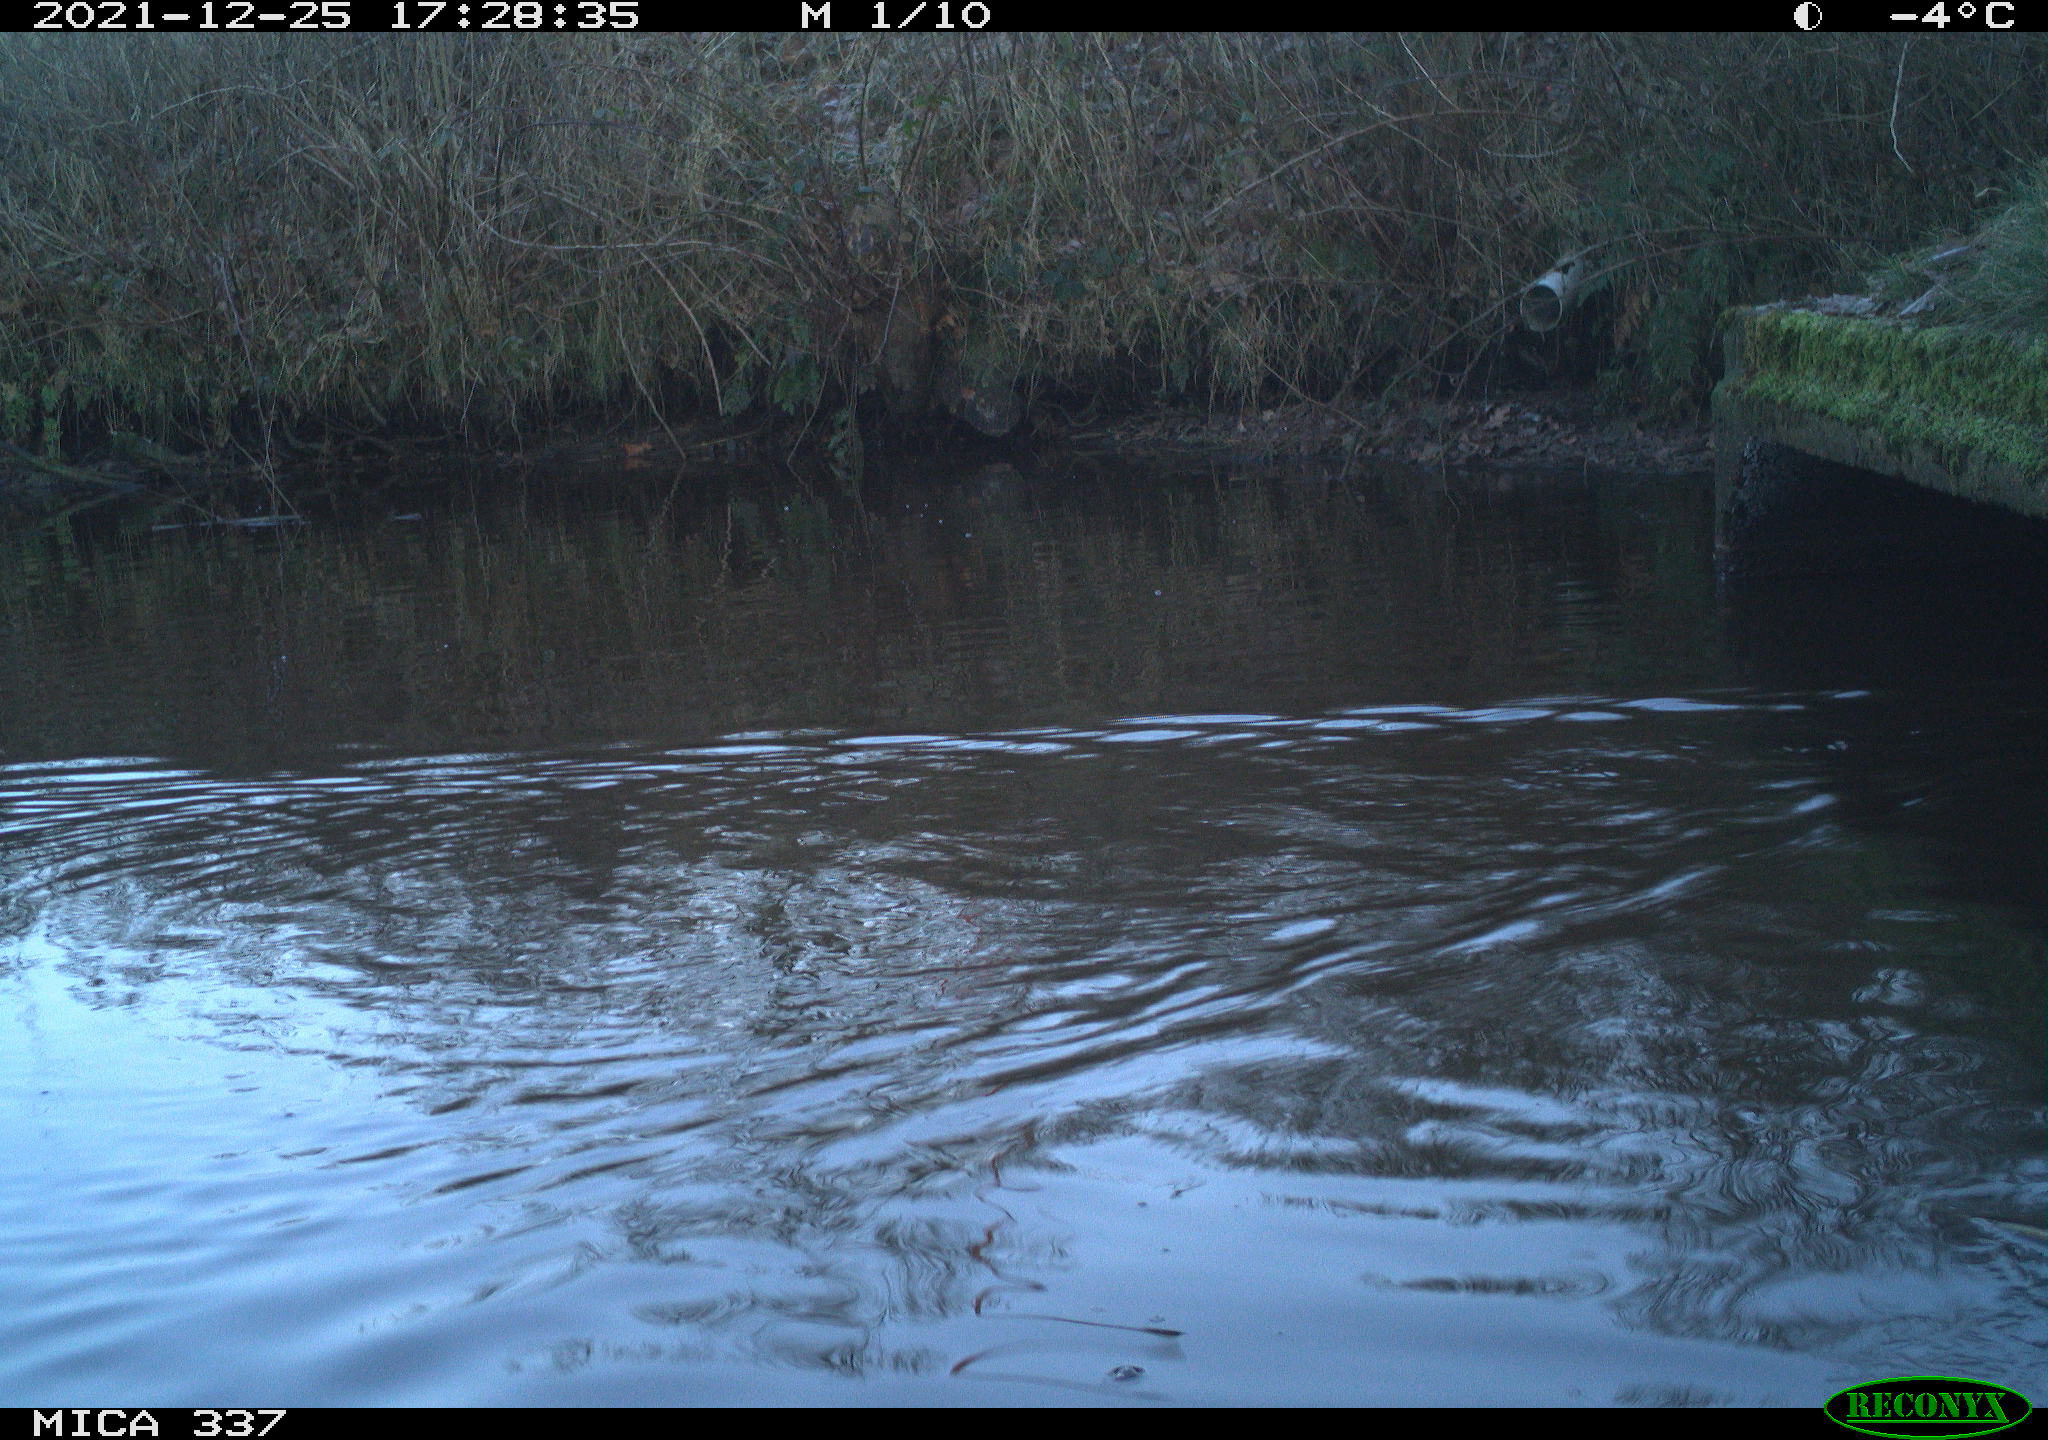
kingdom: Animalia
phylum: Chordata
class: Aves
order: Anseriformes
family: Anatidae
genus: Anas
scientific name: Anas platyrhynchos
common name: Mallard
